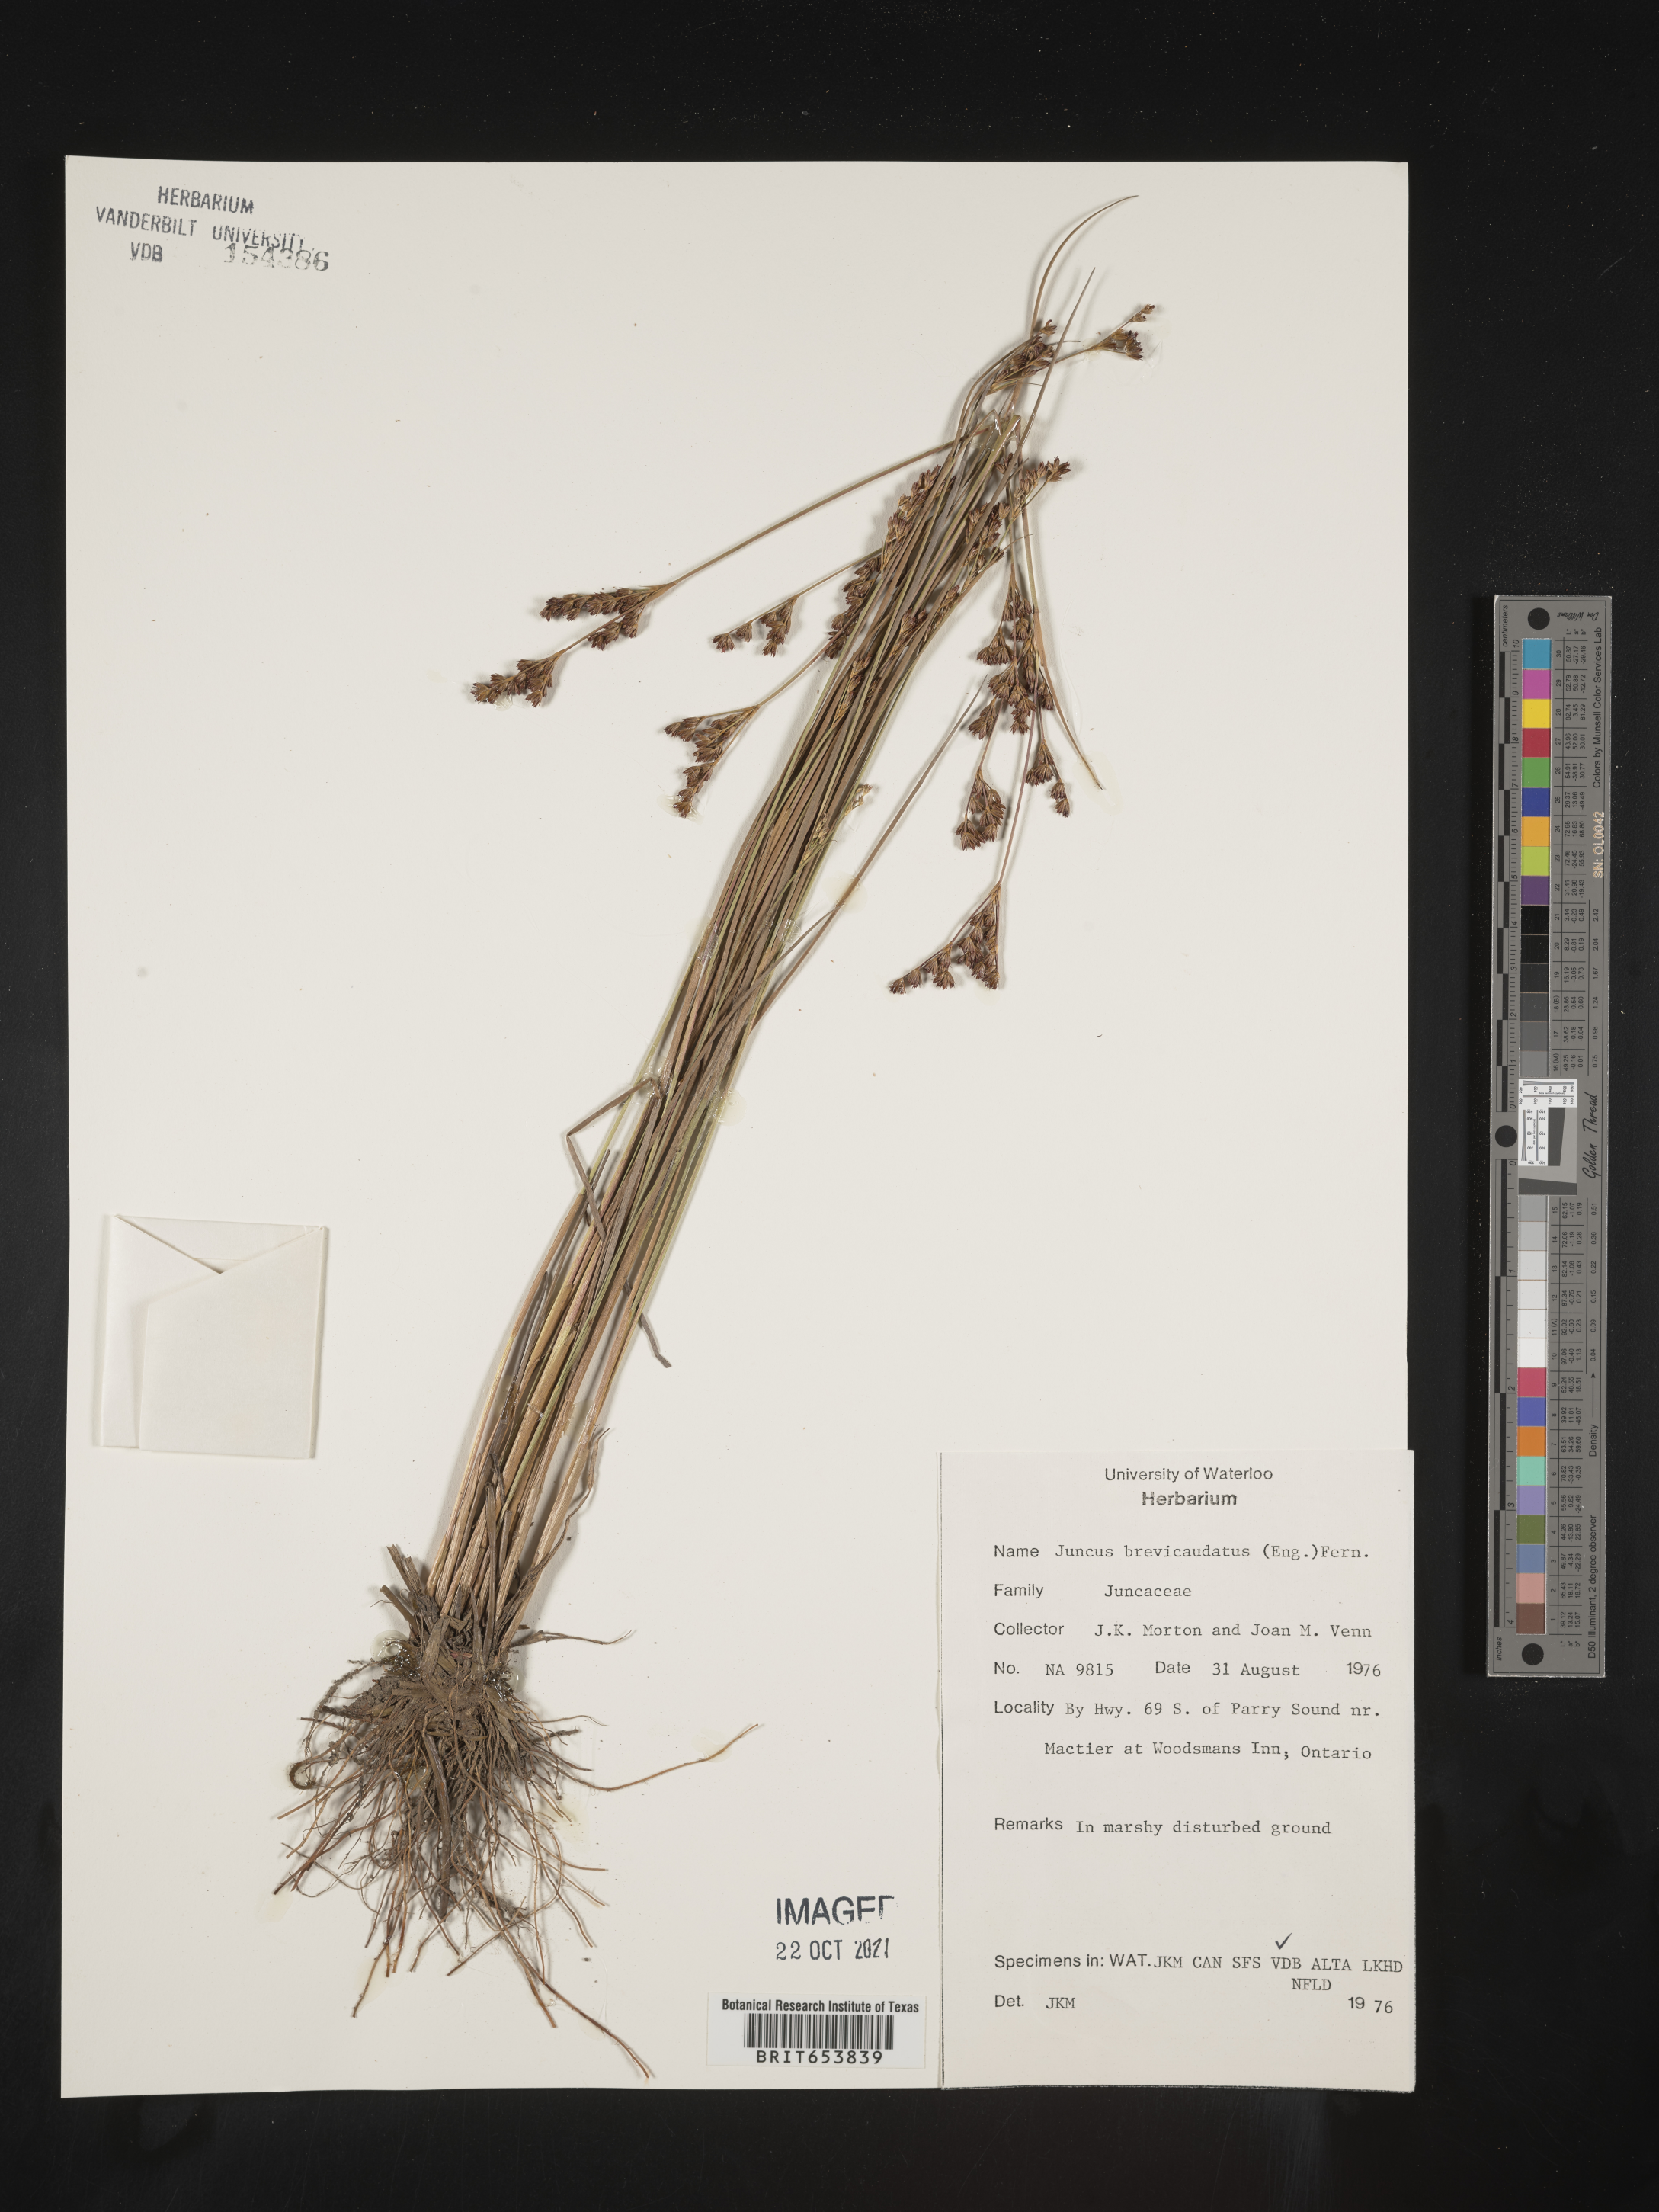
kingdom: Plantae
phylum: Tracheophyta
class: Liliopsida
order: Poales
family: Juncaceae
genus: Juncus
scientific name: Juncus brevicaudatus
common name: Narrow-panicle rush
